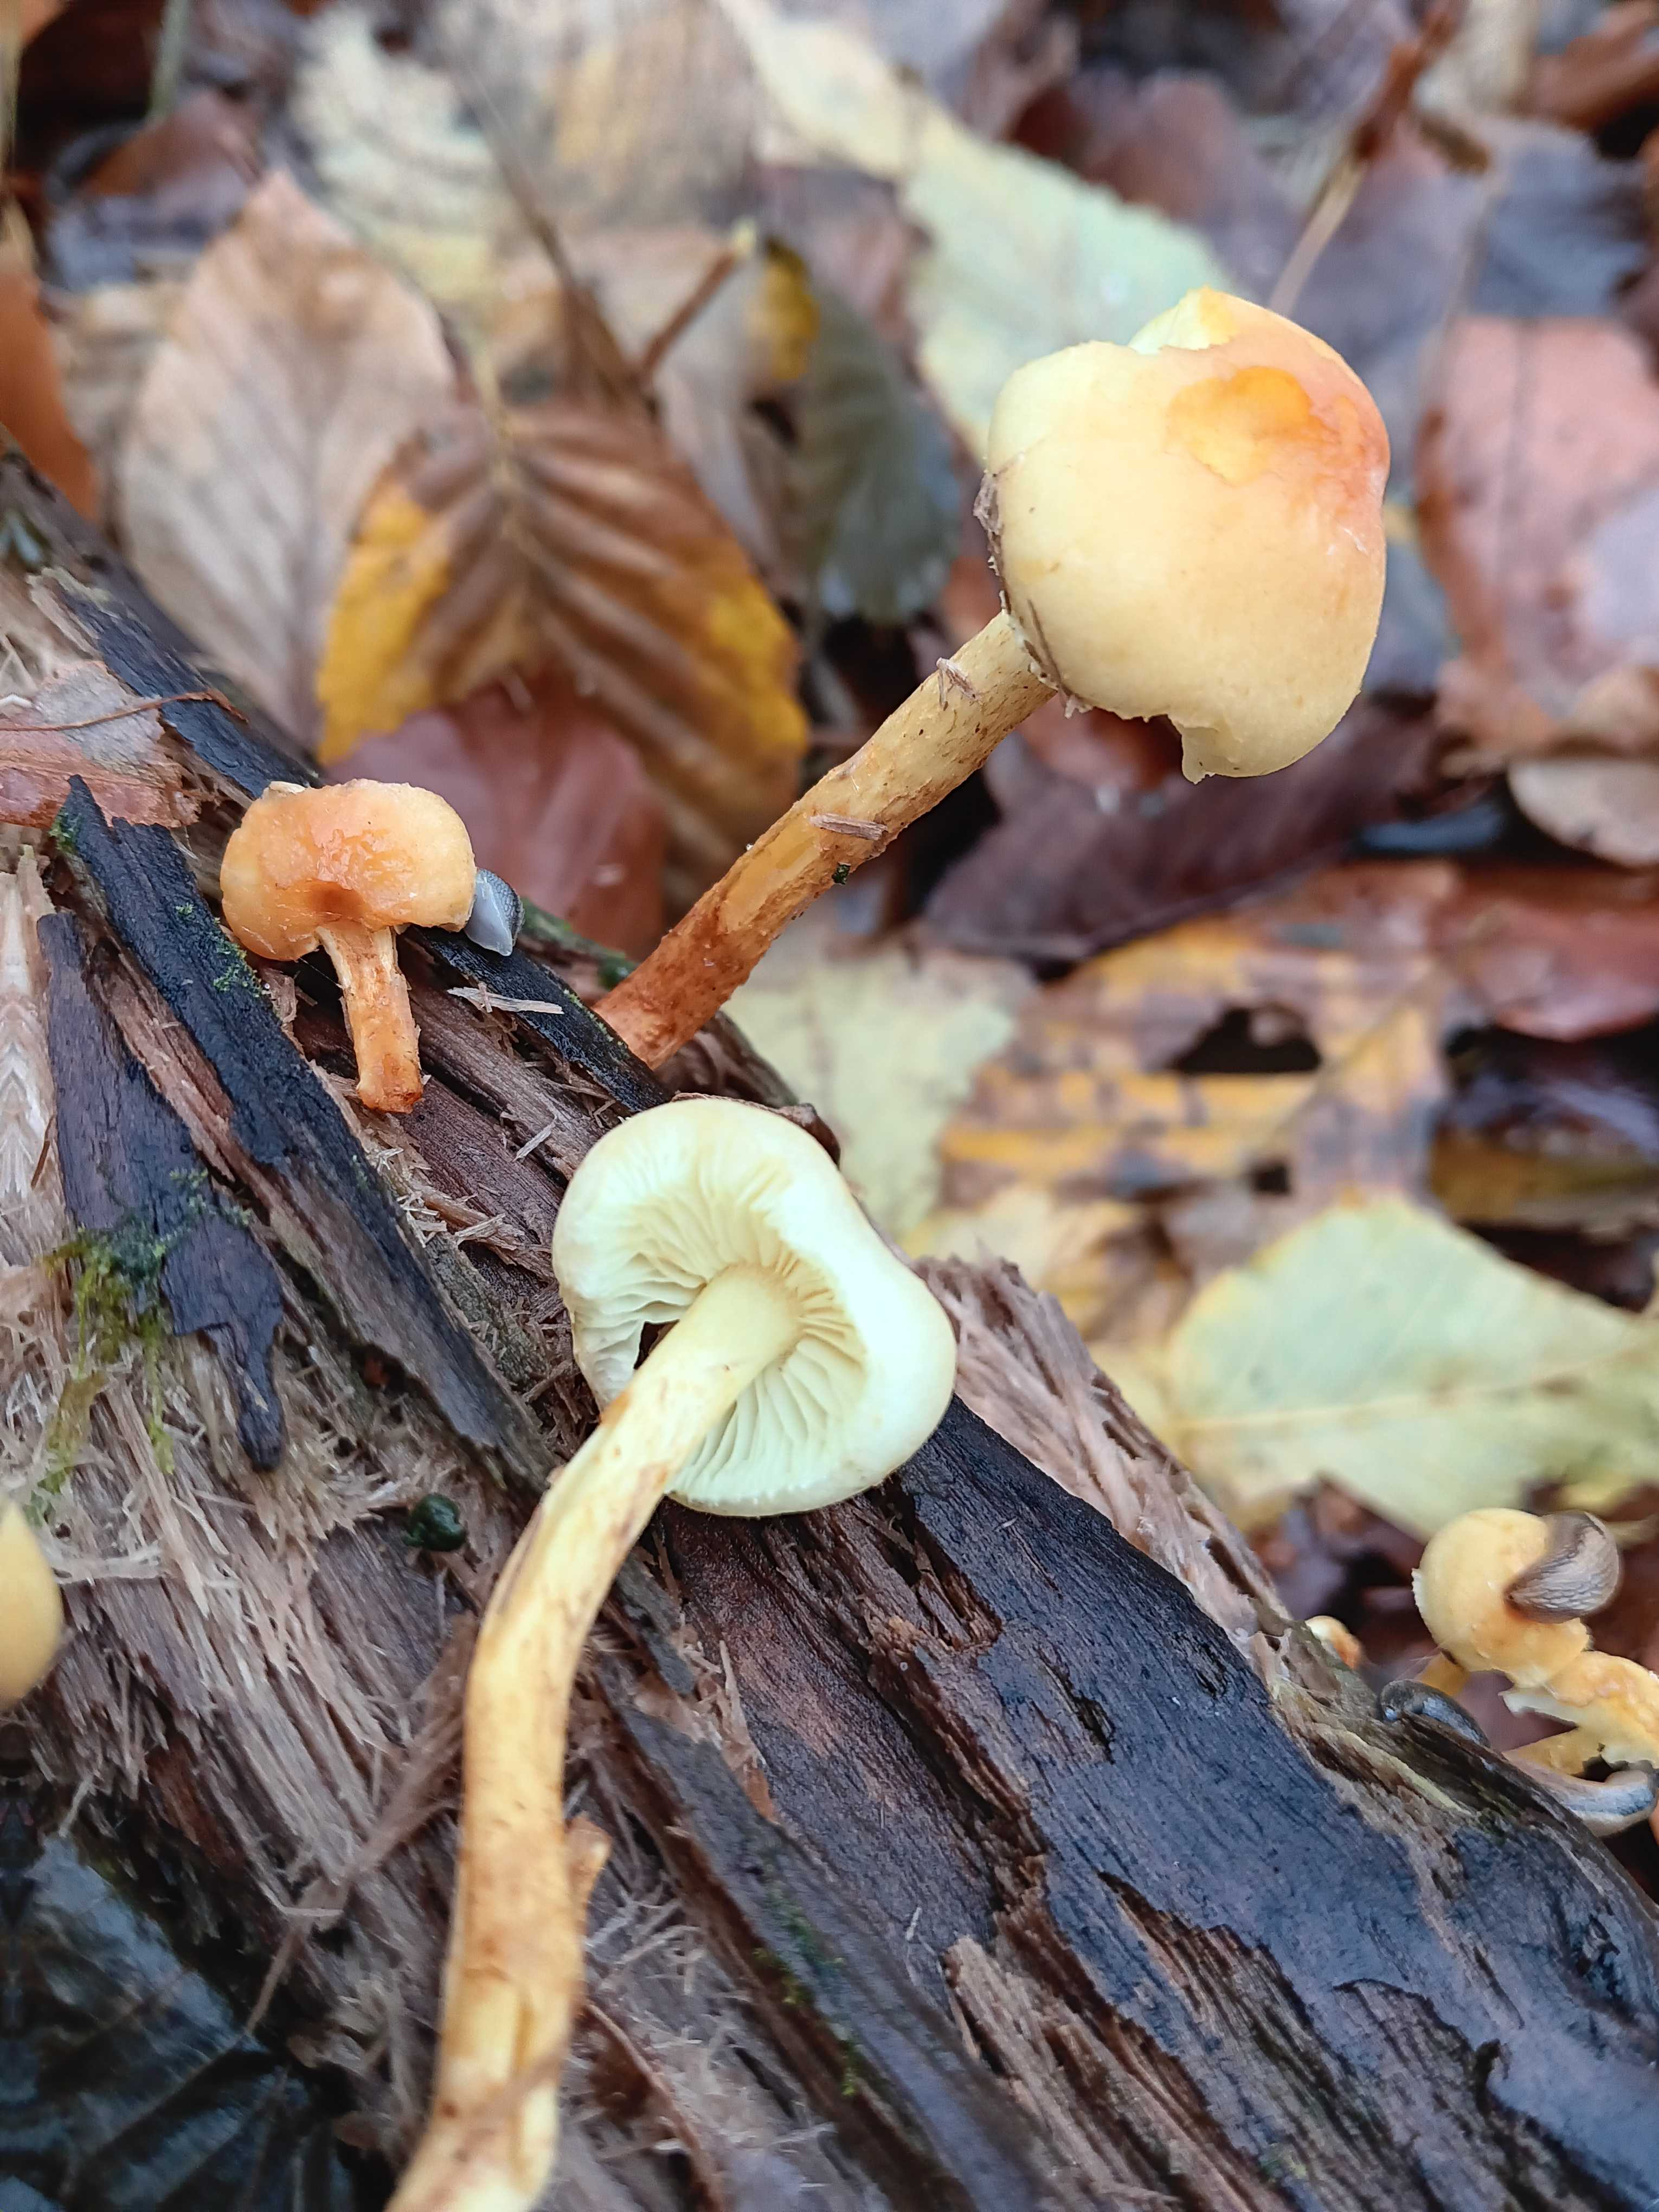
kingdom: Fungi
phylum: Basidiomycota
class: Agaricomycetes
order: Agaricales
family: Strophariaceae
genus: Hypholoma
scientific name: Hypholoma fasciculare
